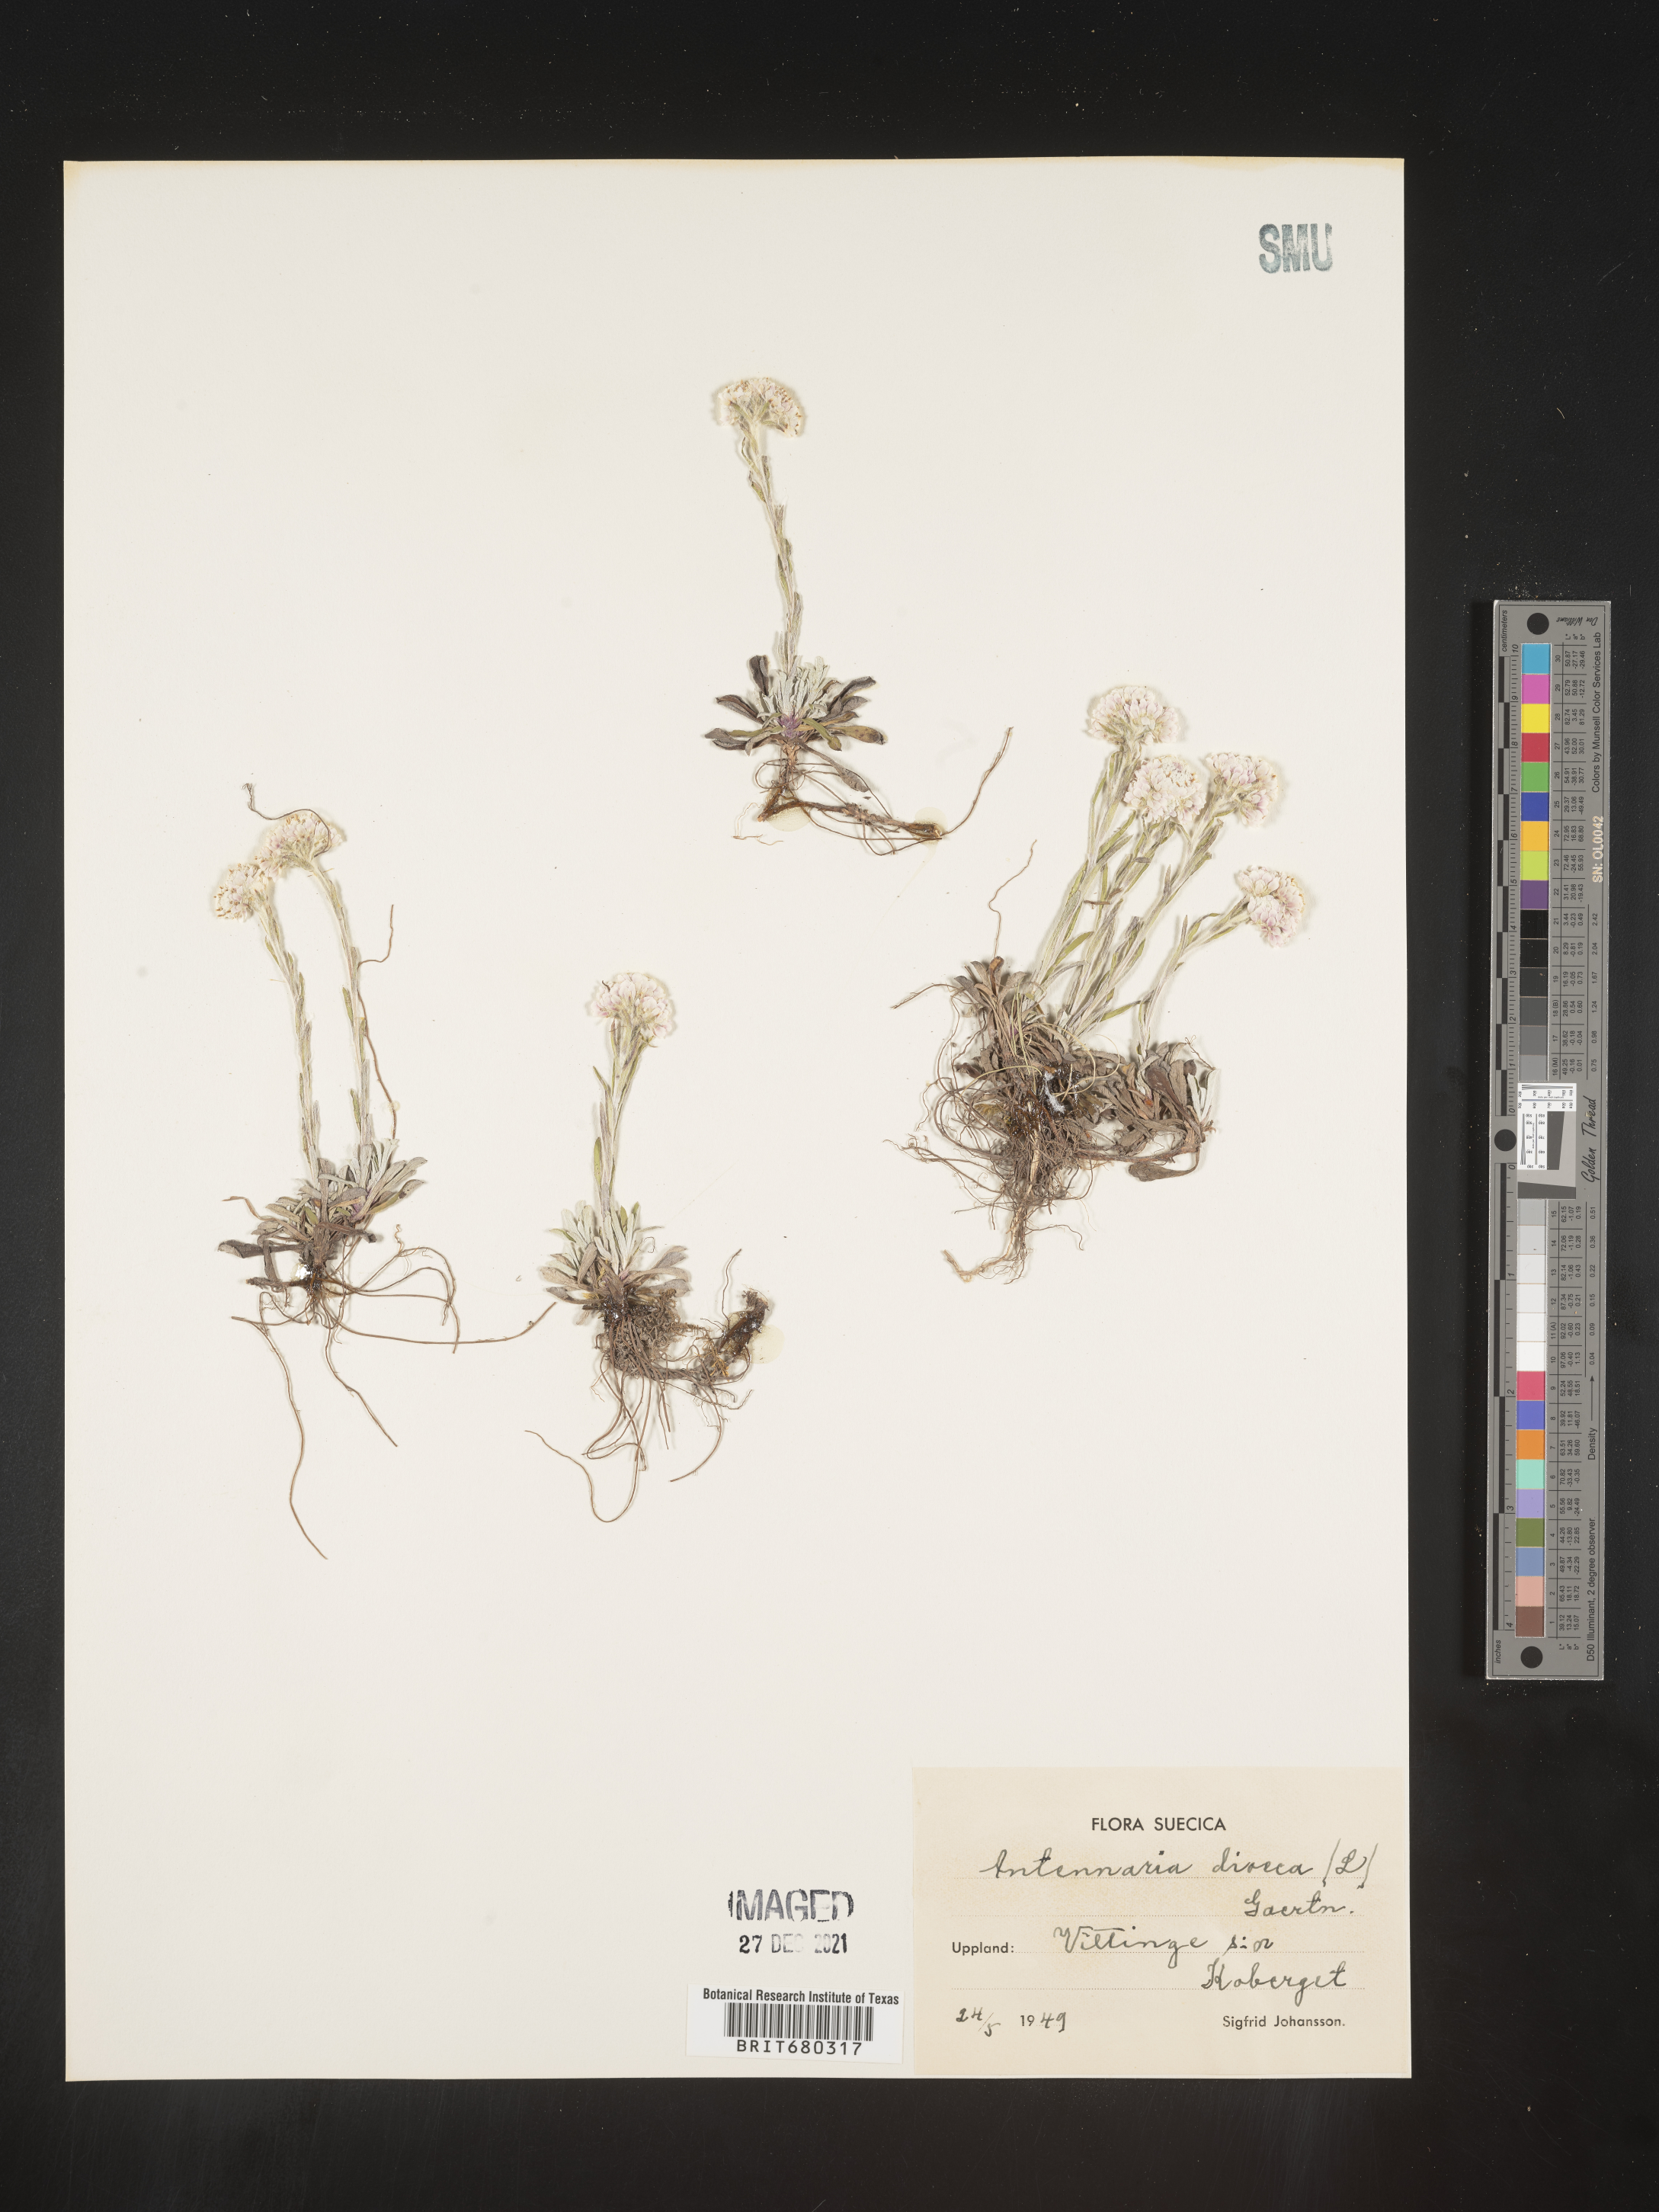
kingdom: Plantae
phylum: Tracheophyta
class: Magnoliopsida
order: Asterales
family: Asteraceae
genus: Antennaria
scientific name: Antennaria dioica
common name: Mountain everlasting
